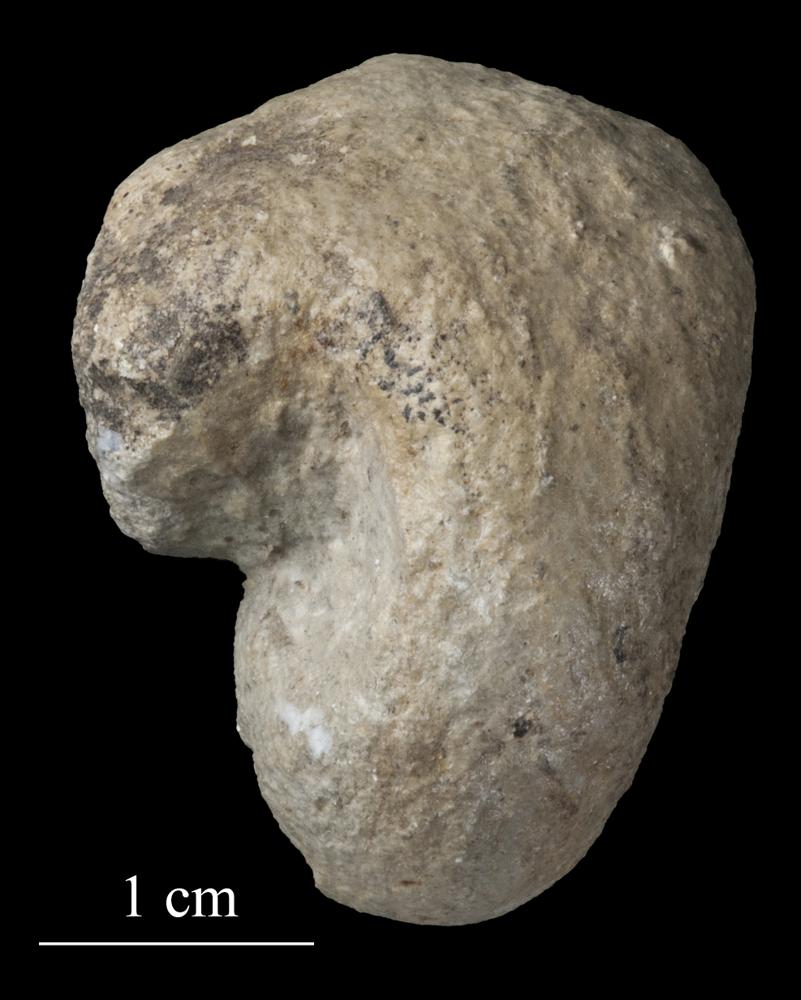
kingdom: Animalia
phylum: Mollusca
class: Gastropoda
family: Bellerophontidae
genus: Bellerophon
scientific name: Bellerophon
